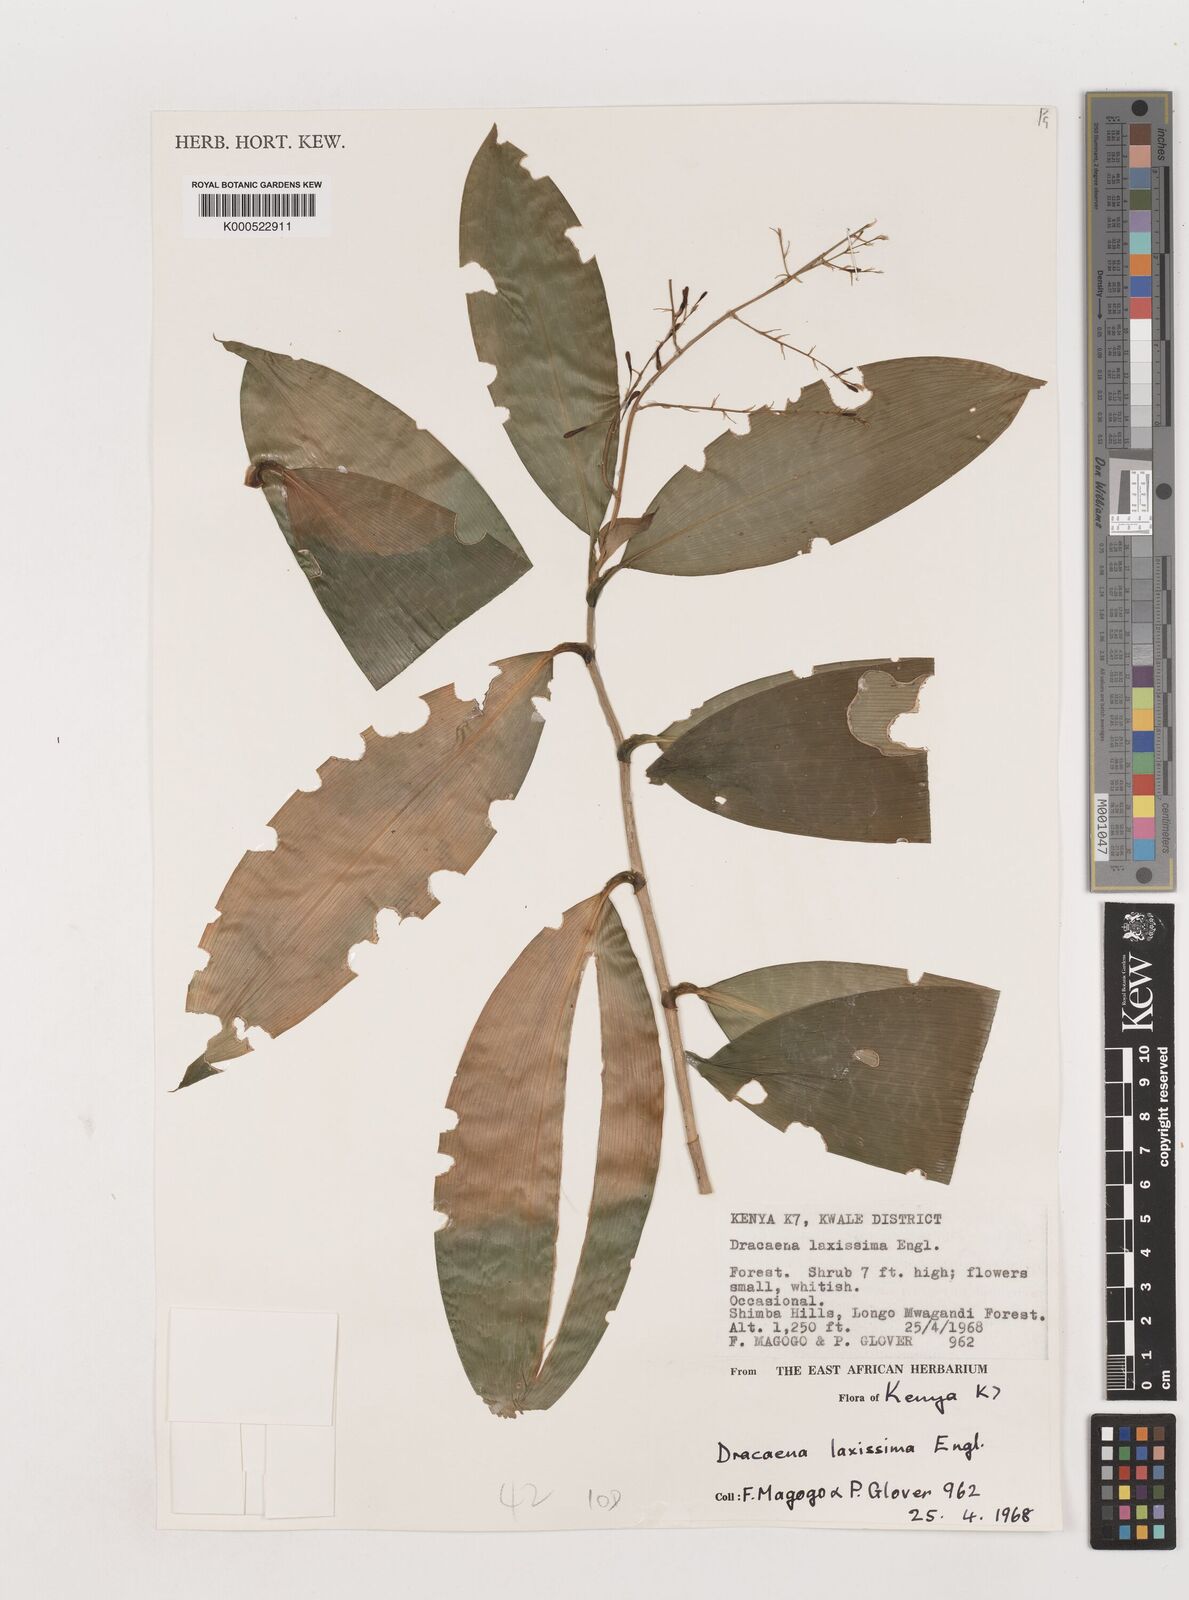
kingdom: Plantae
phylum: Tracheophyta
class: Liliopsida
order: Asparagales
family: Asparagaceae
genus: Dracaena
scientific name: Dracaena laxissima
